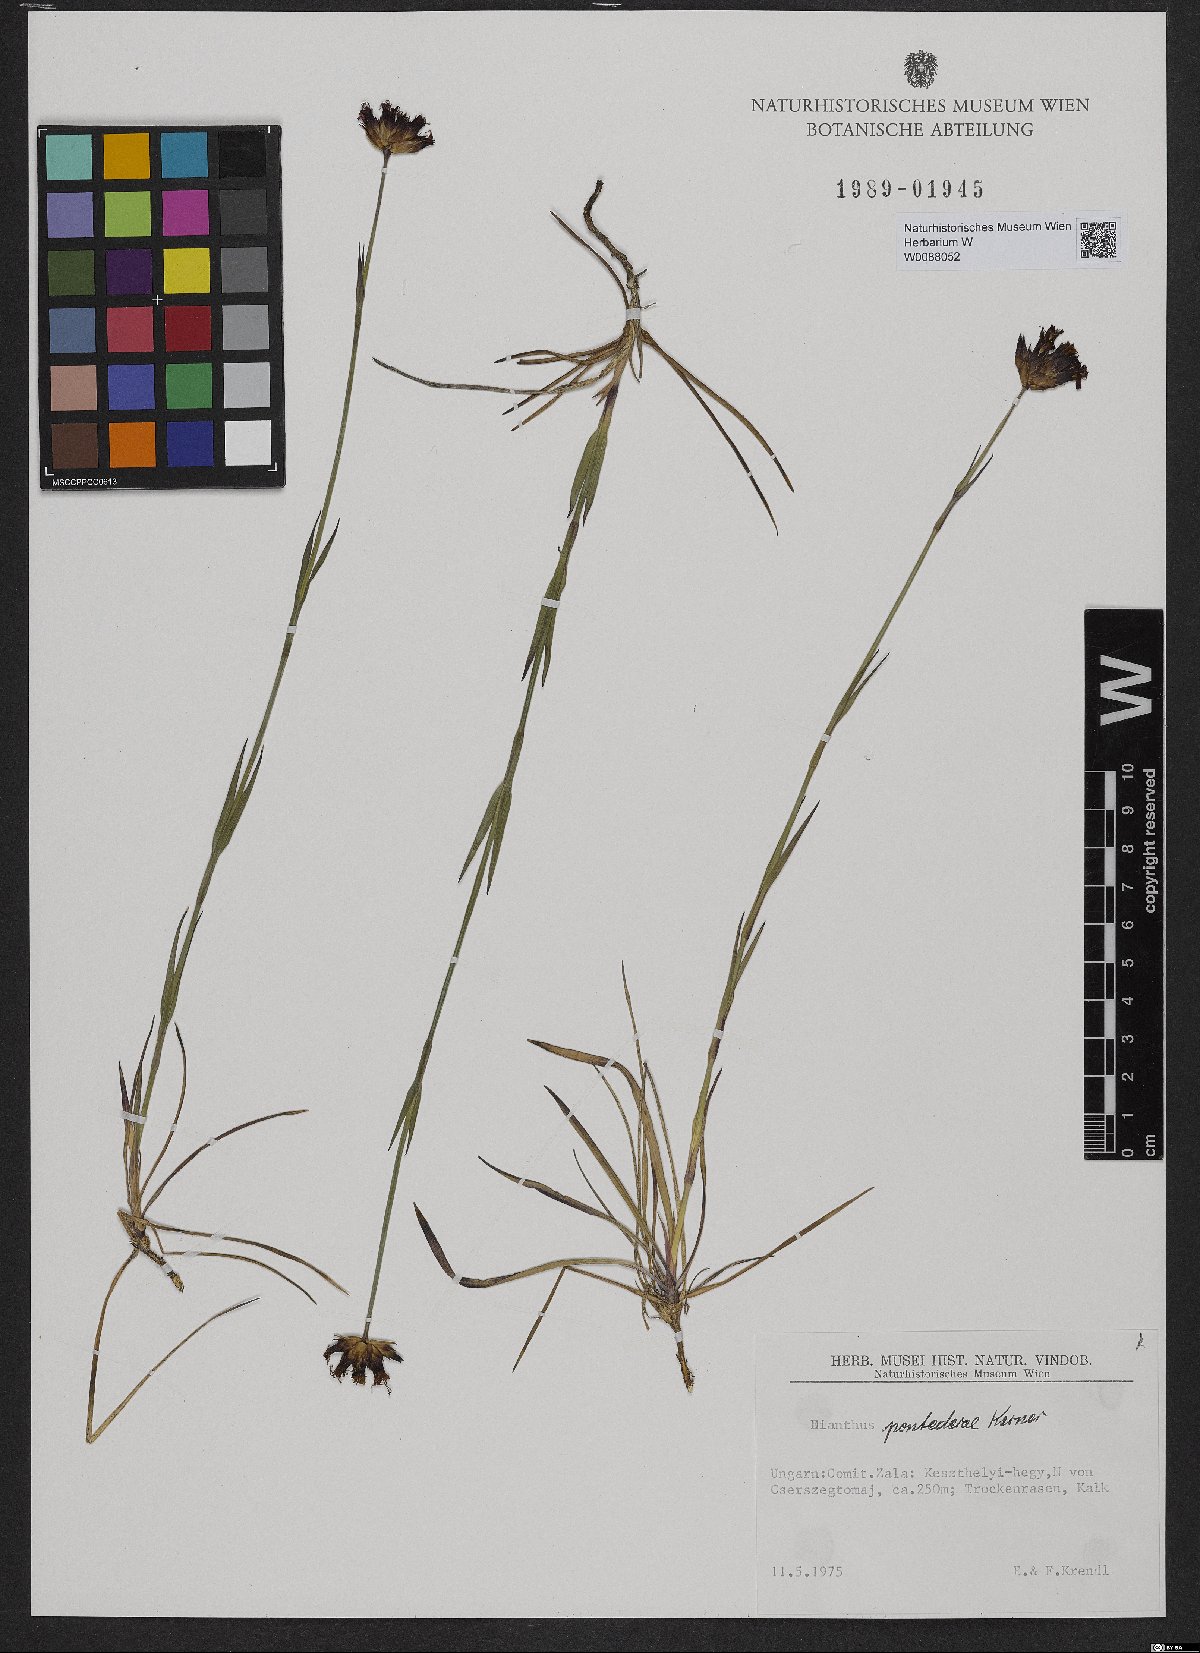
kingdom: Plantae
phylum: Tracheophyta
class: Magnoliopsida
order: Caryophyllales
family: Caryophyllaceae
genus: Dianthus
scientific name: Dianthus pontederae
